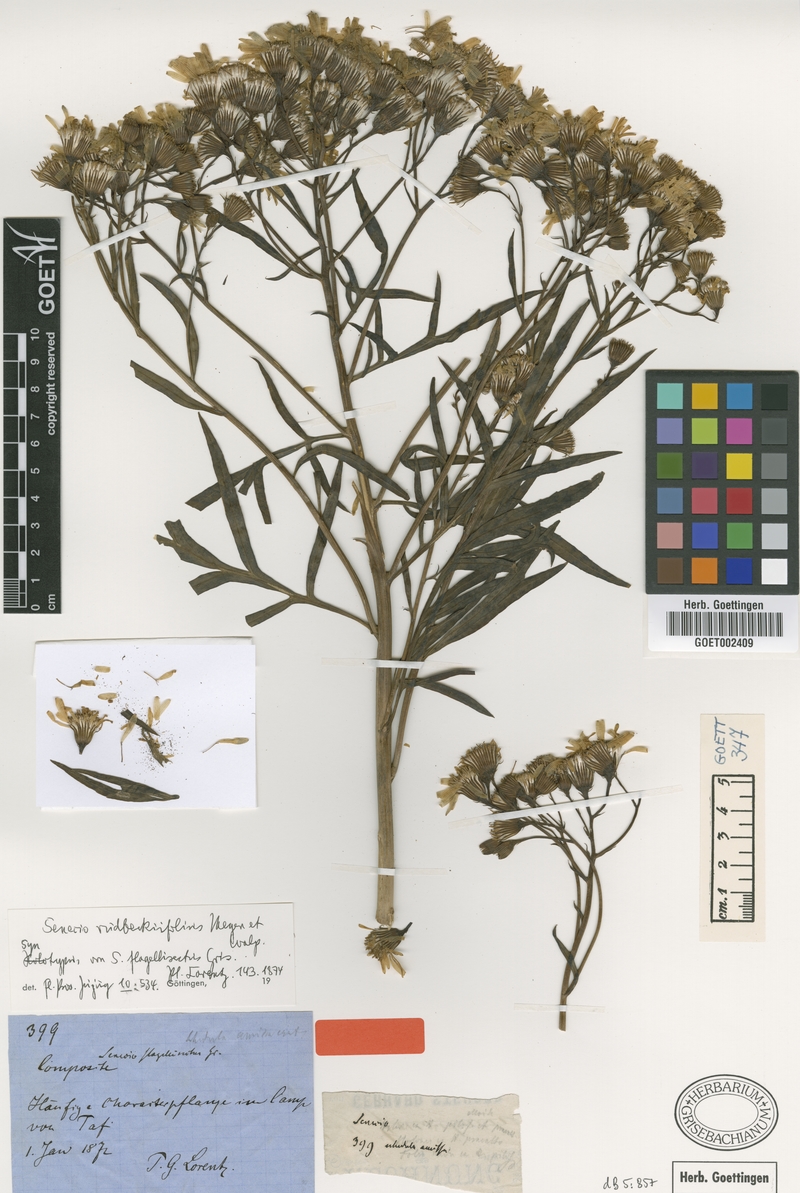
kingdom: Plantae
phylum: Tracheophyta
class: Magnoliopsida
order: Asterales
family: Asteraceae
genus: Senecio
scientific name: Senecio rudbeckiifolius
